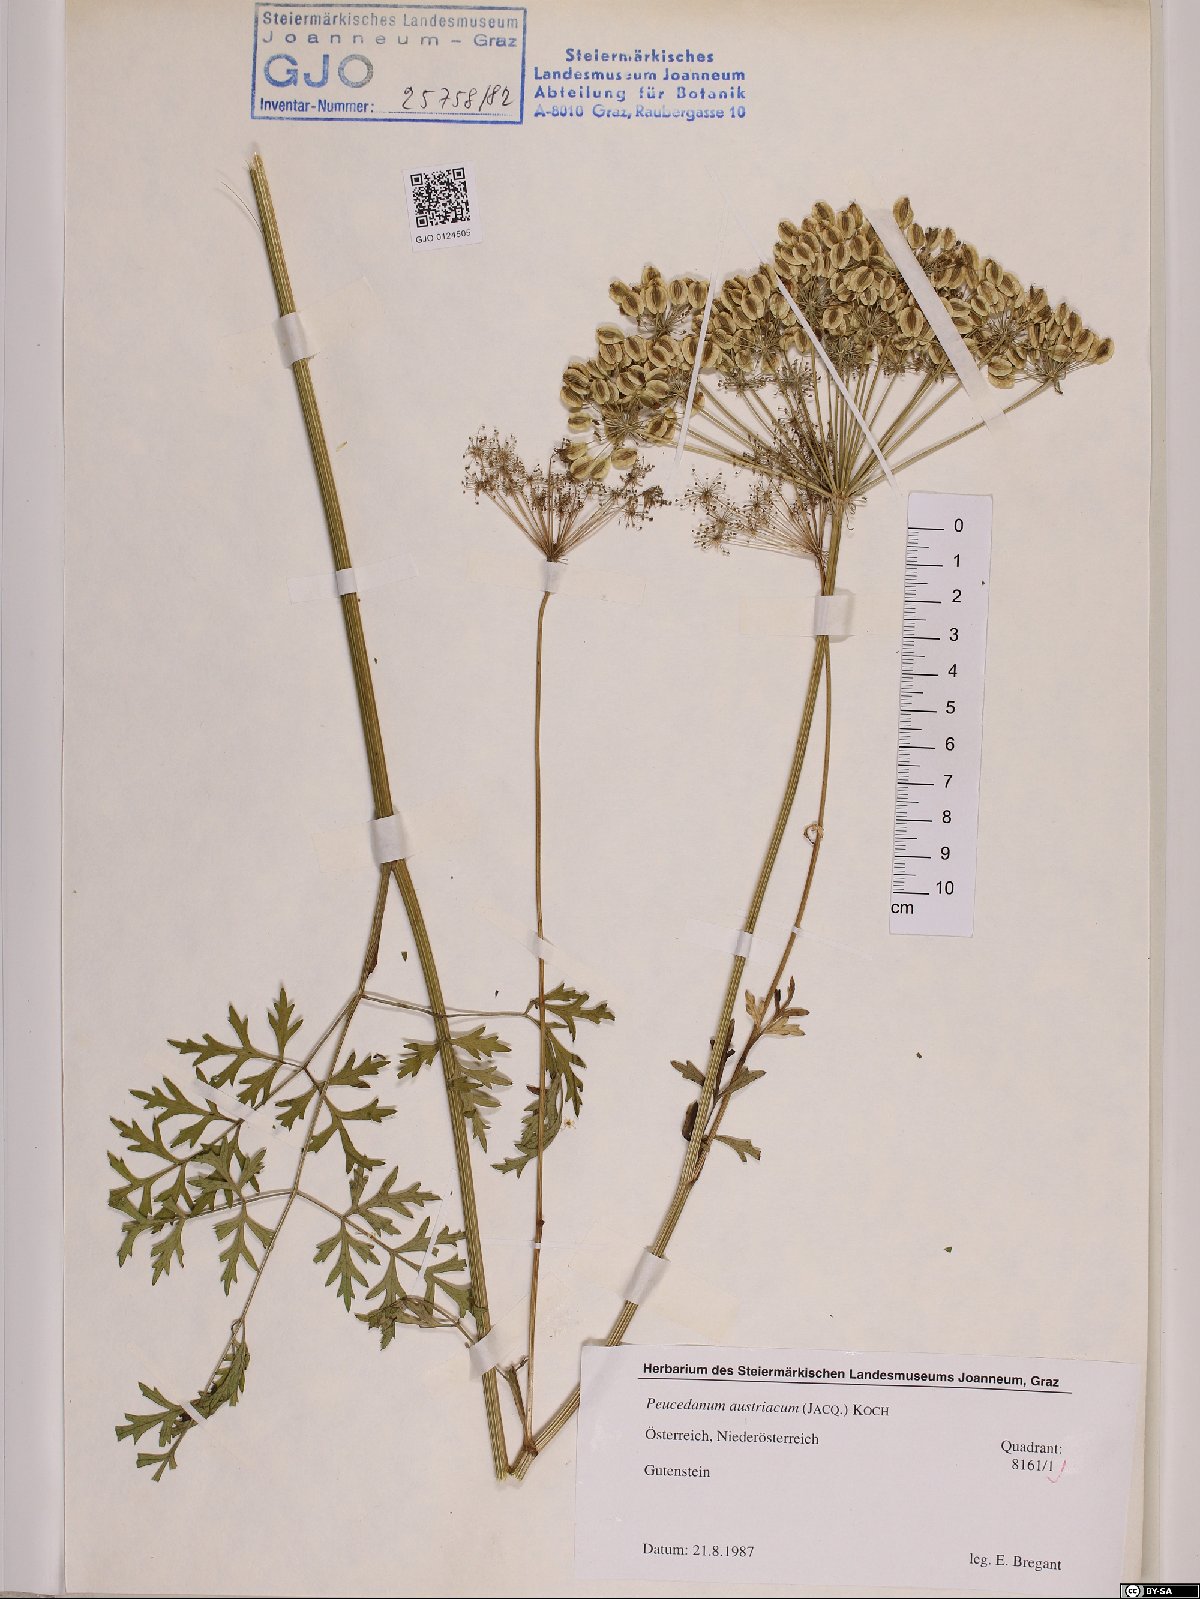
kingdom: Plantae
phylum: Tracheophyta
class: Magnoliopsida
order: Apiales
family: Apiaceae
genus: Peucedanum
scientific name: Peucedanum austriacum
